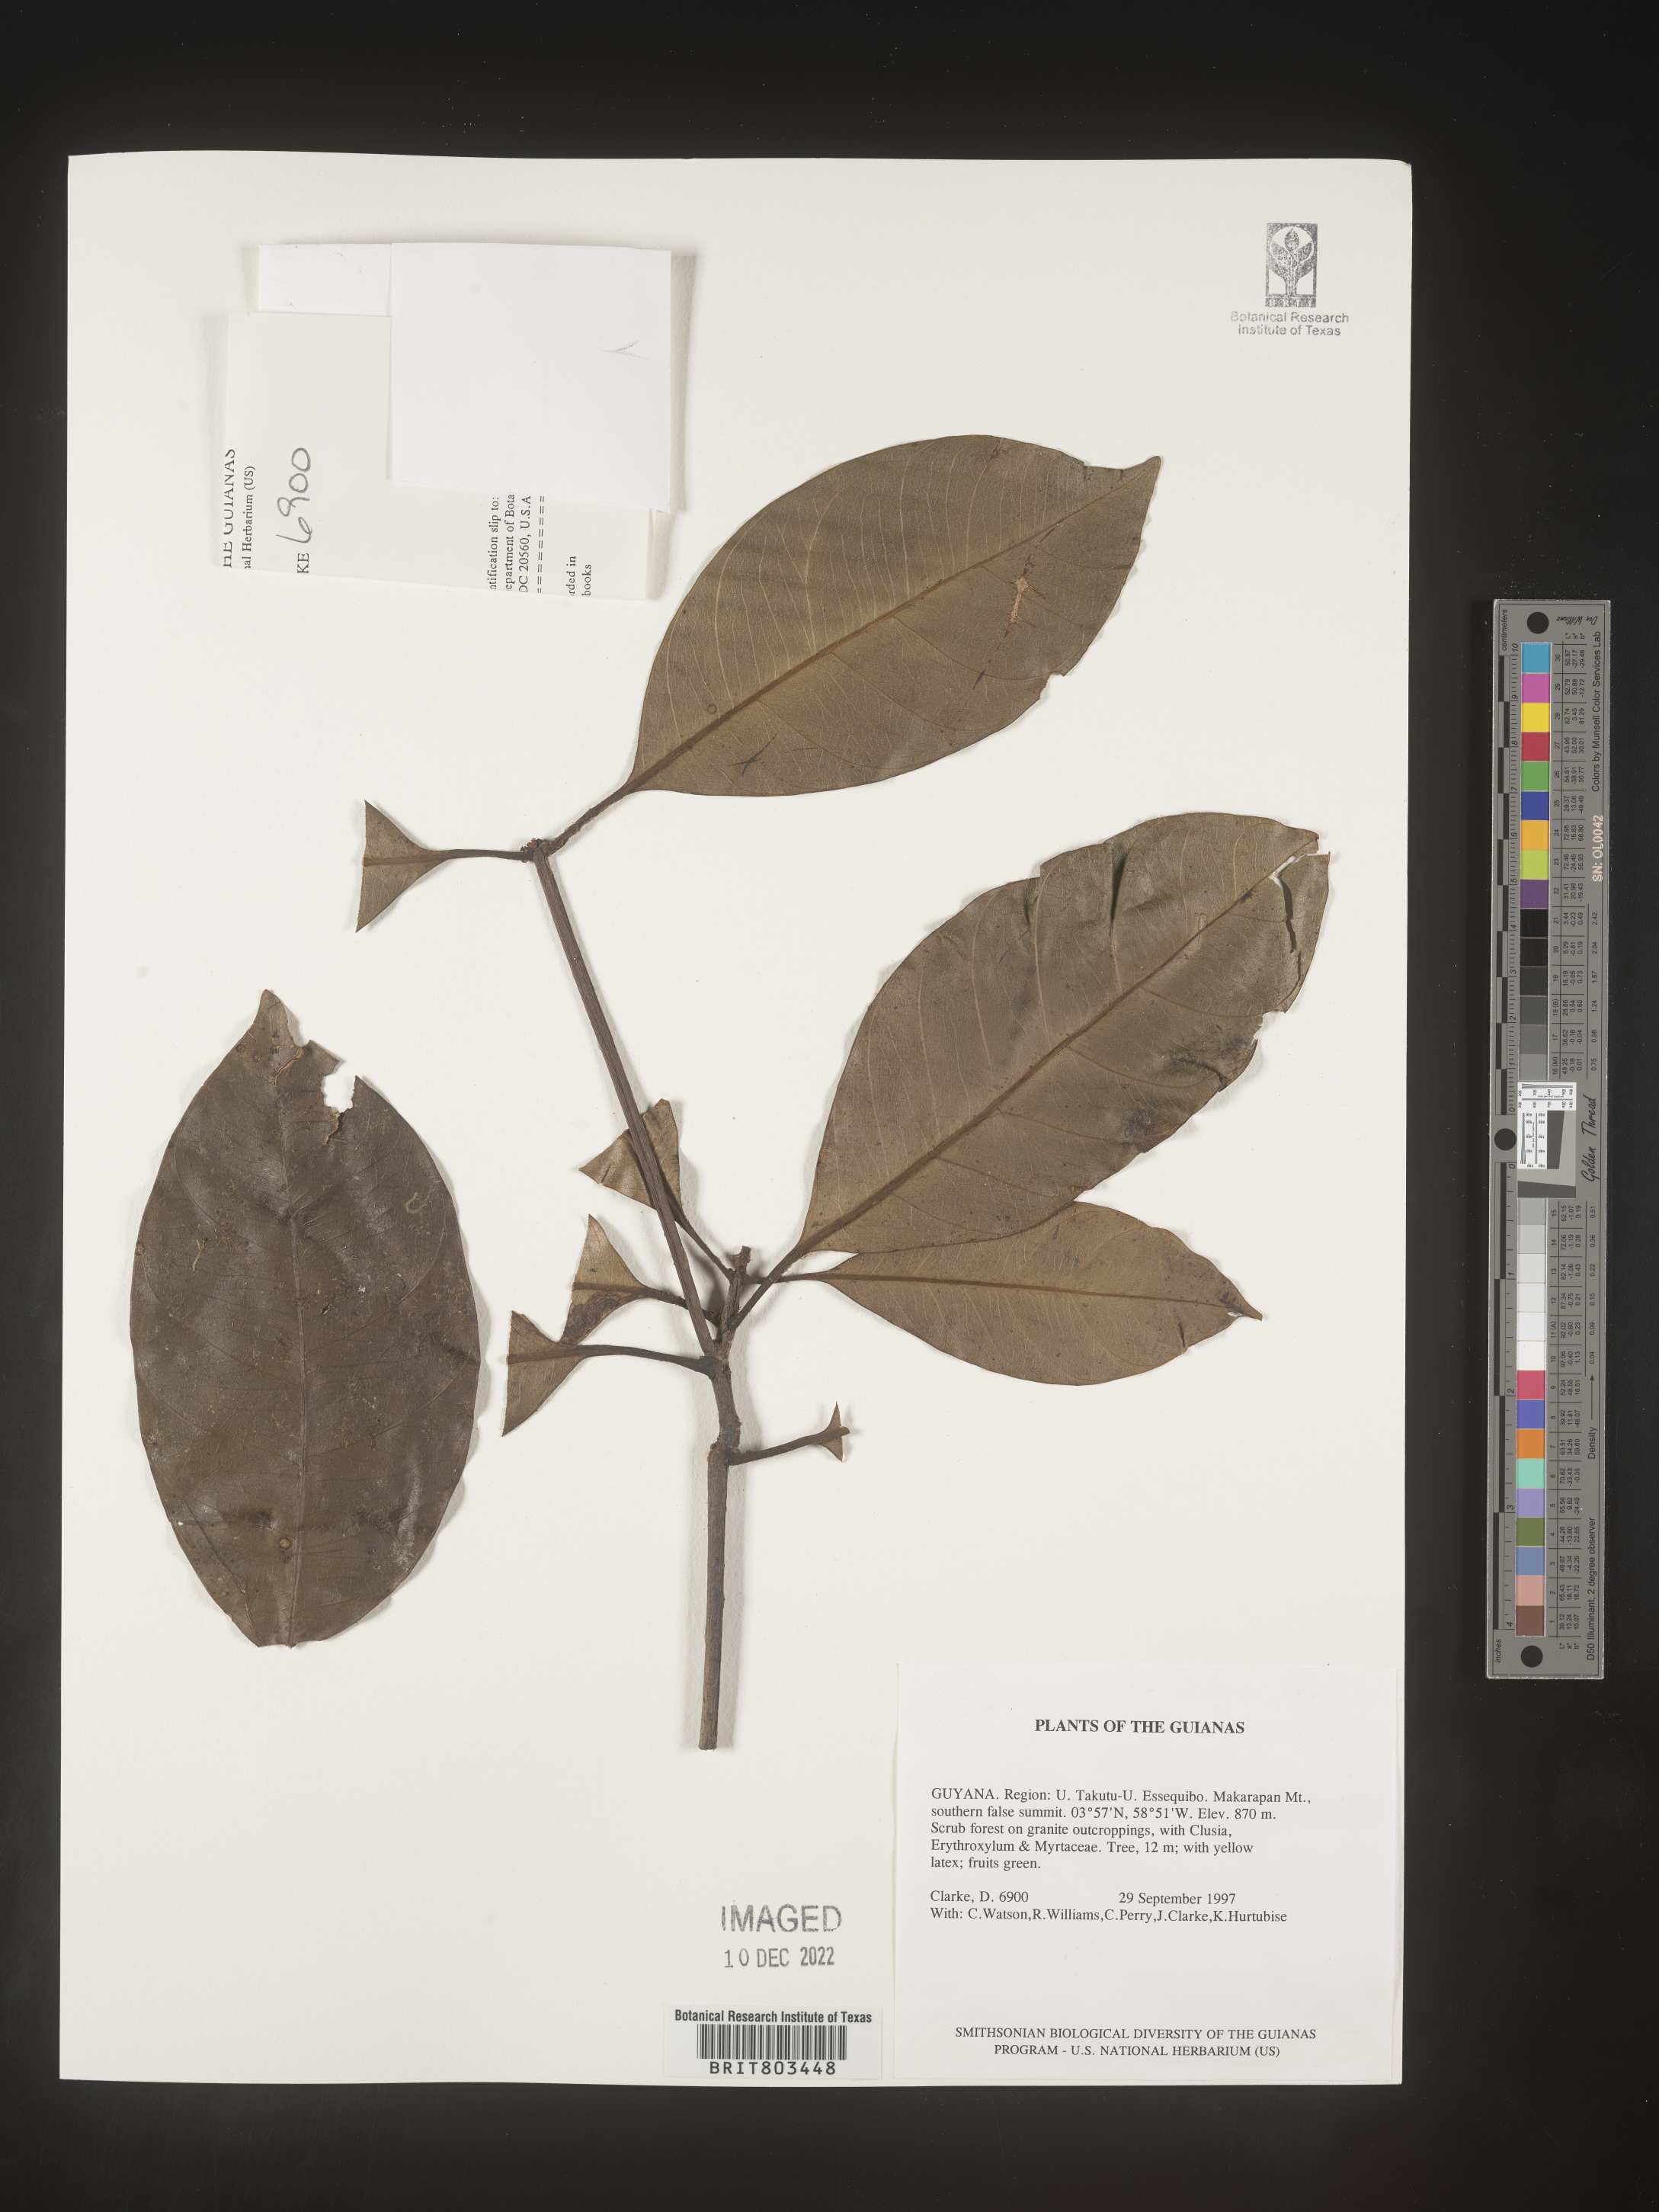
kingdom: Plantae
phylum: Tracheophyta
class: Magnoliopsida
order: Malpighiales
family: Clusiaceae
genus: Tovomita
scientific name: Tovomita
